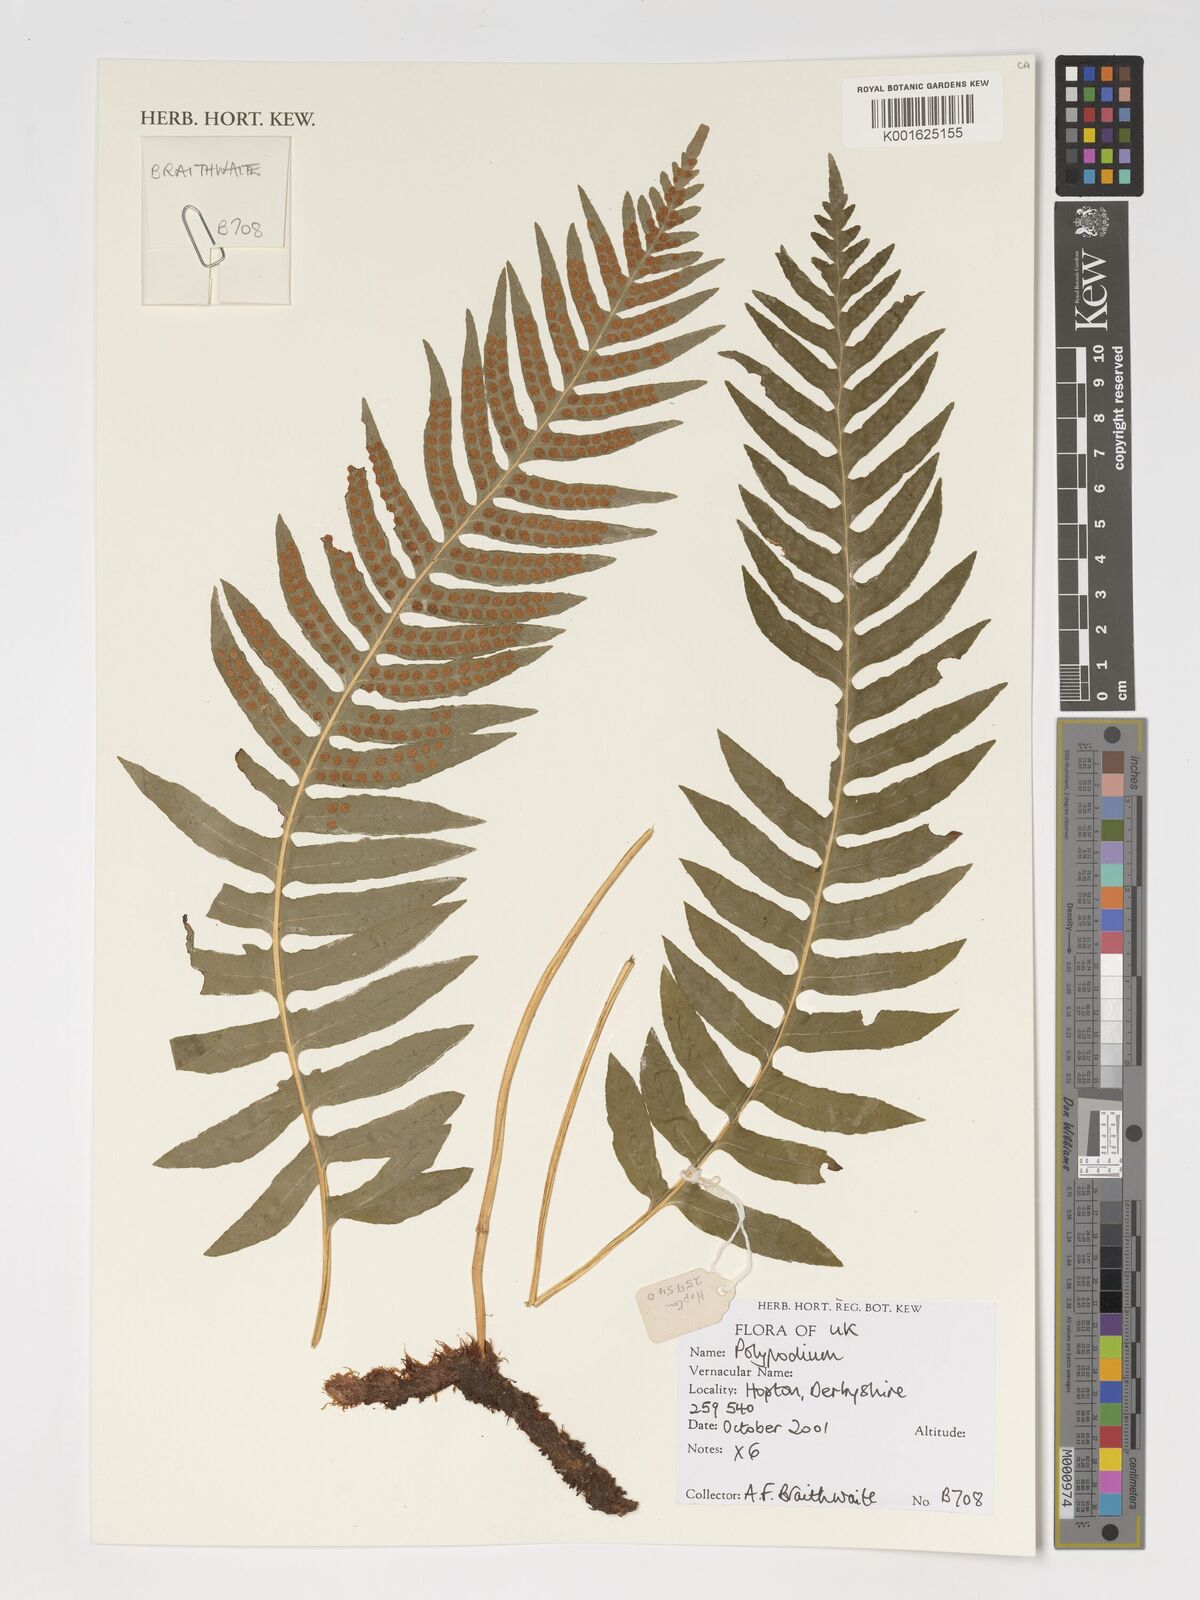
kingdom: Plantae
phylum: Tracheophyta
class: Polypodiopsida
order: Polypodiales
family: Polypodiaceae
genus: Polypodium
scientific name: Polypodium
